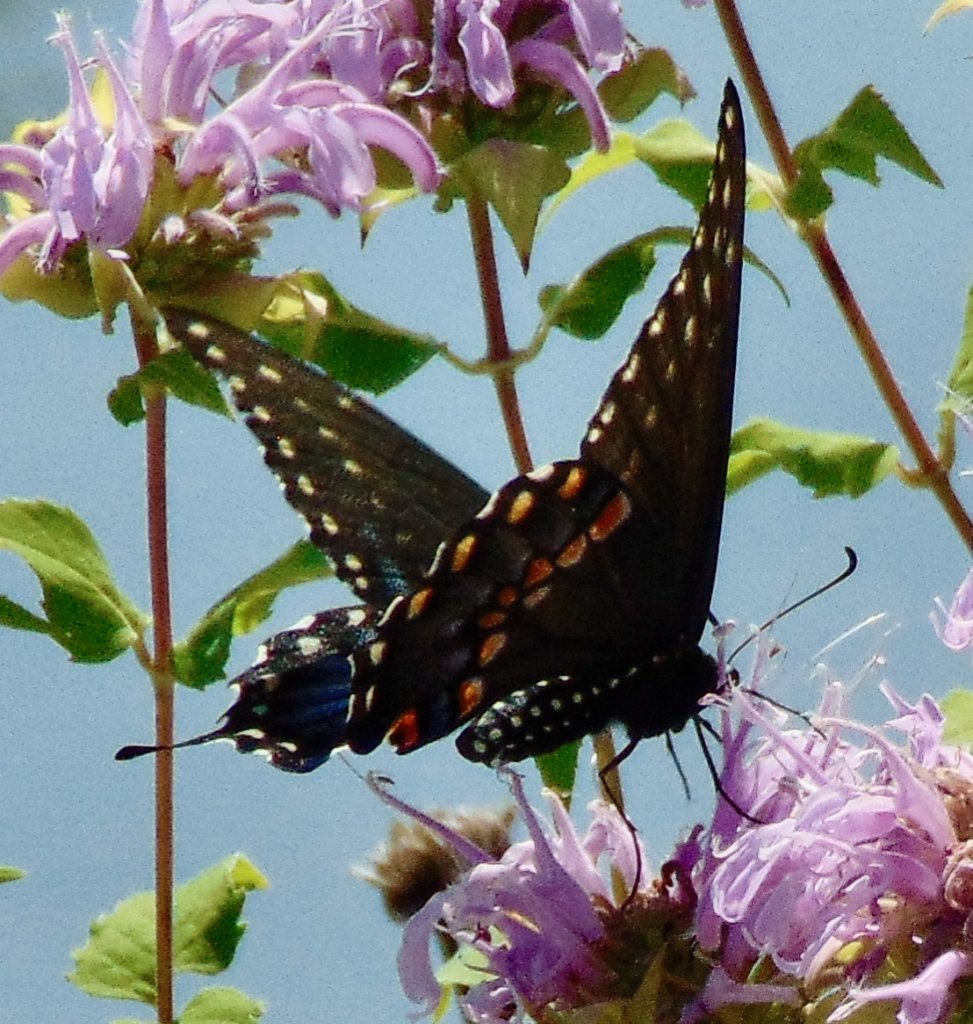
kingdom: Animalia
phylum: Arthropoda
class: Insecta
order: Lepidoptera
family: Papilionidae
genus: Papilio
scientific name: Papilio polyxenes
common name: Black Swallowtail
